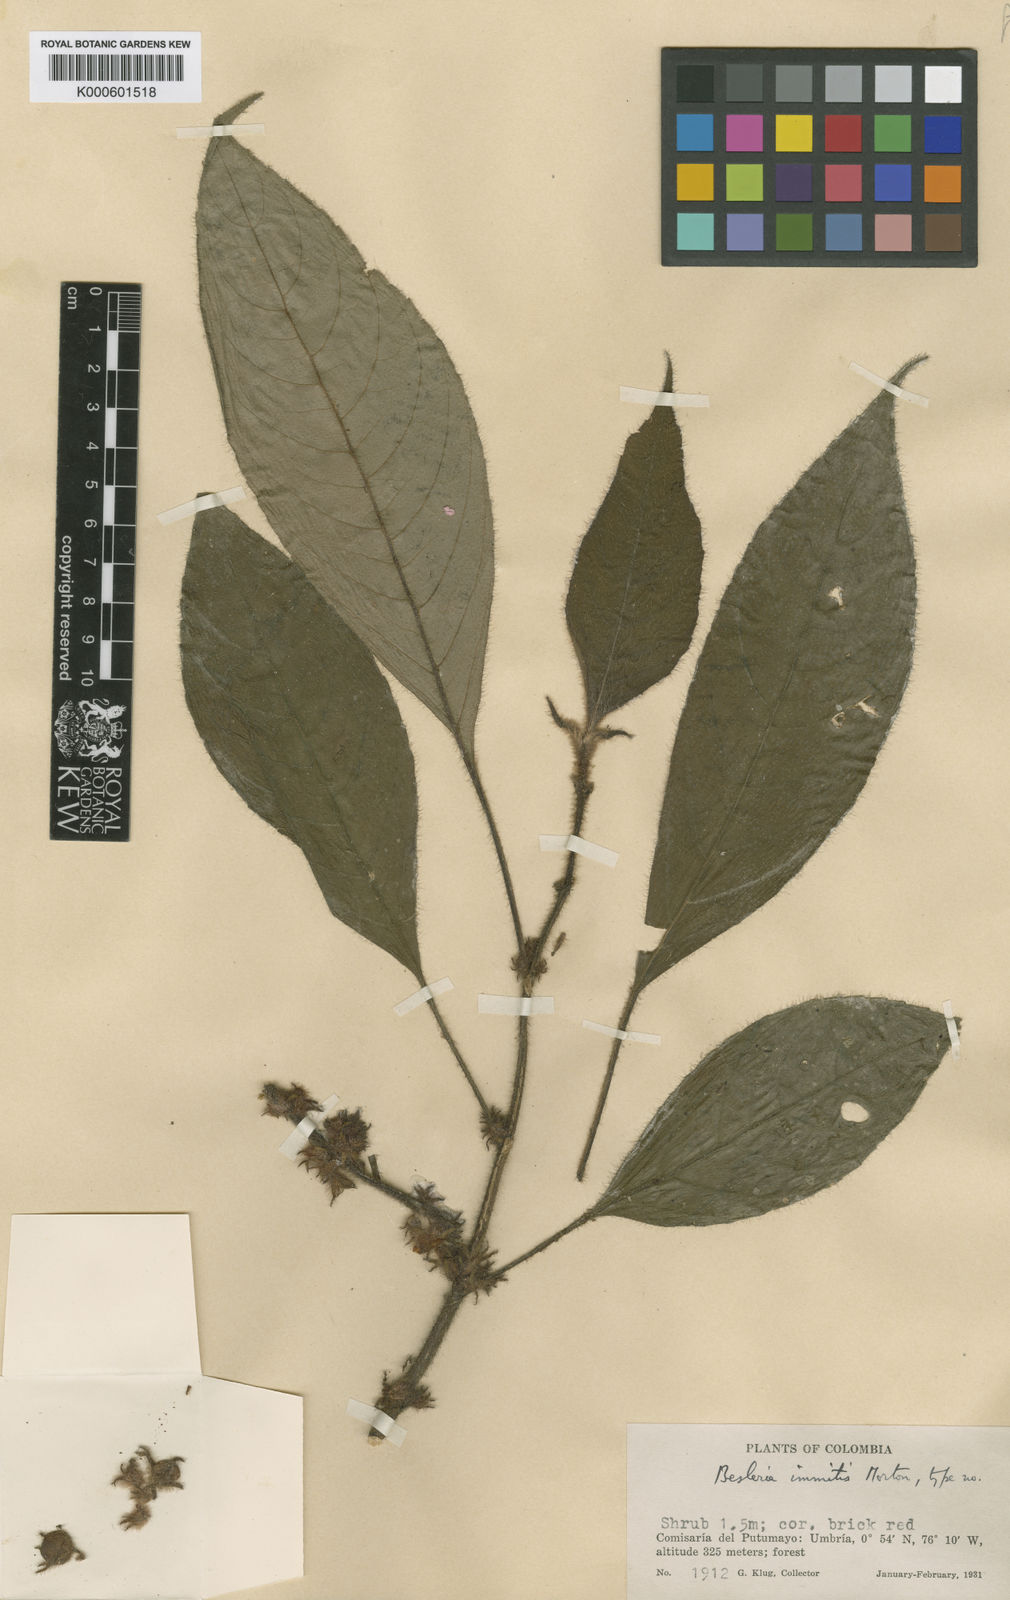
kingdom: Plantae
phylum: Tracheophyta
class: Magnoliopsida
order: Lamiales
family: Gesneriaceae
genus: Besleria
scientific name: Besleria immitis
